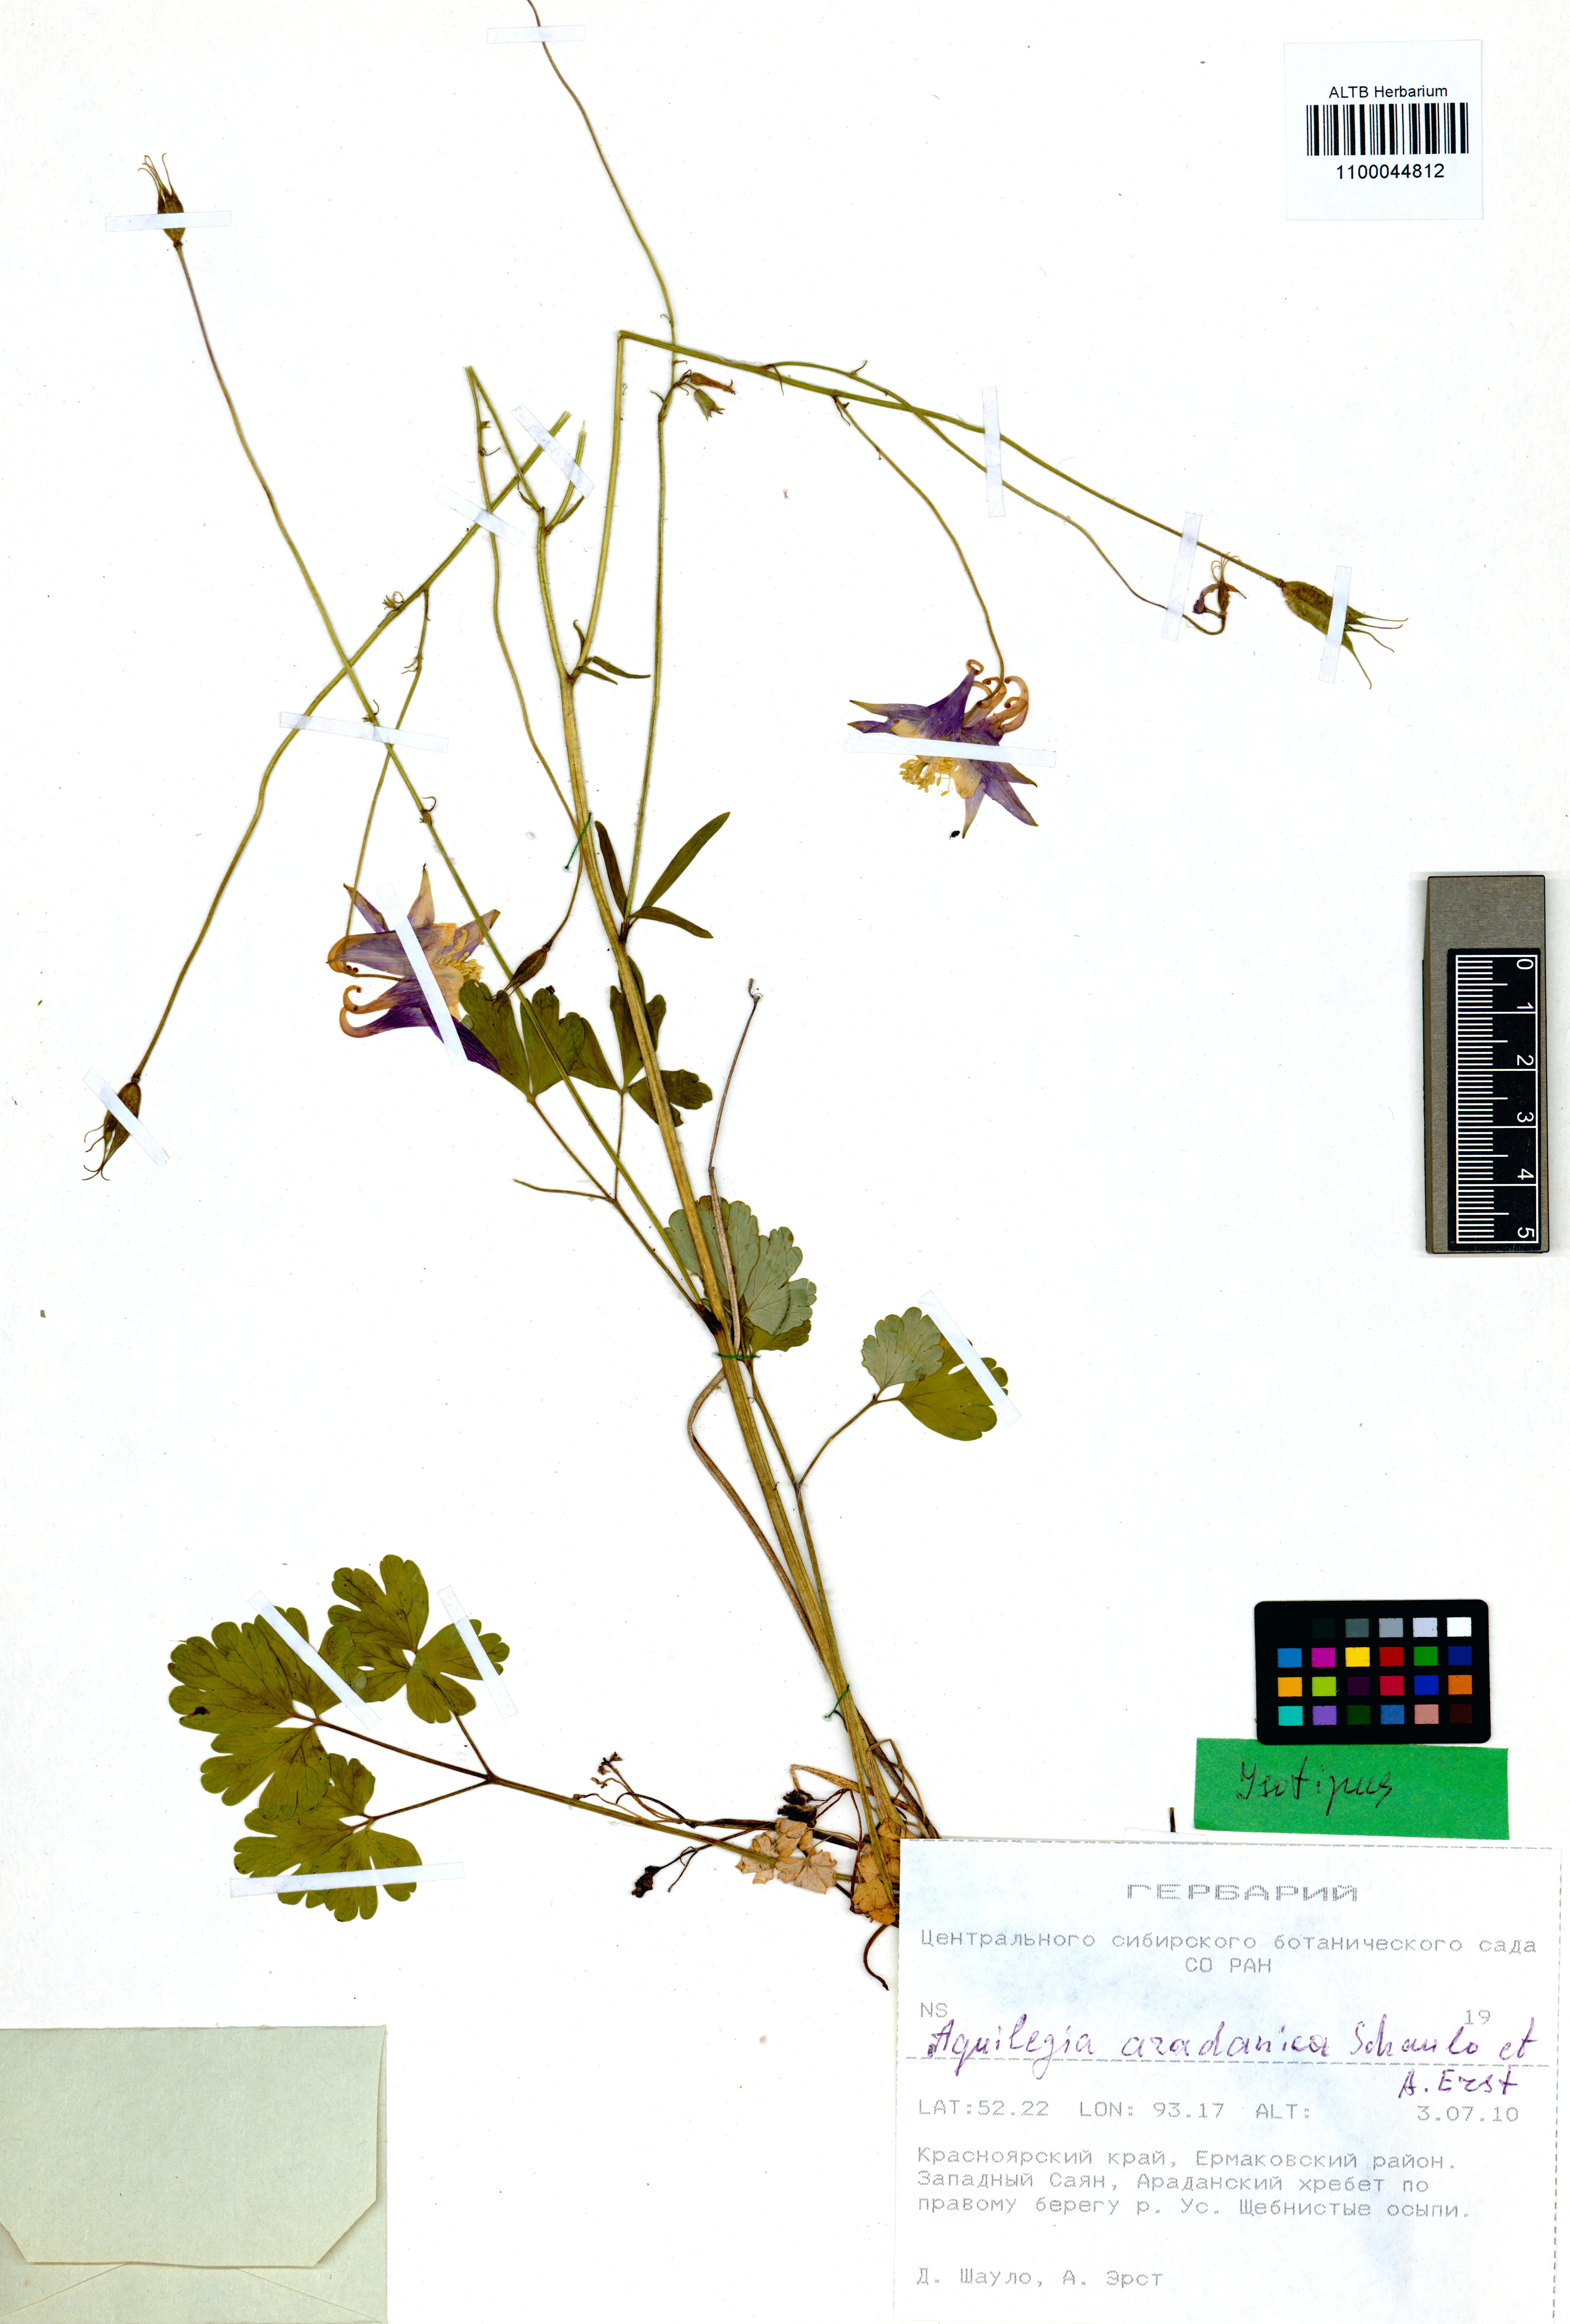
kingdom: Plantae
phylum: Tracheophyta
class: Magnoliopsida
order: Ranunculales
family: Ranunculaceae
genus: Aquilegia
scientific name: Aquilegia aradanica
